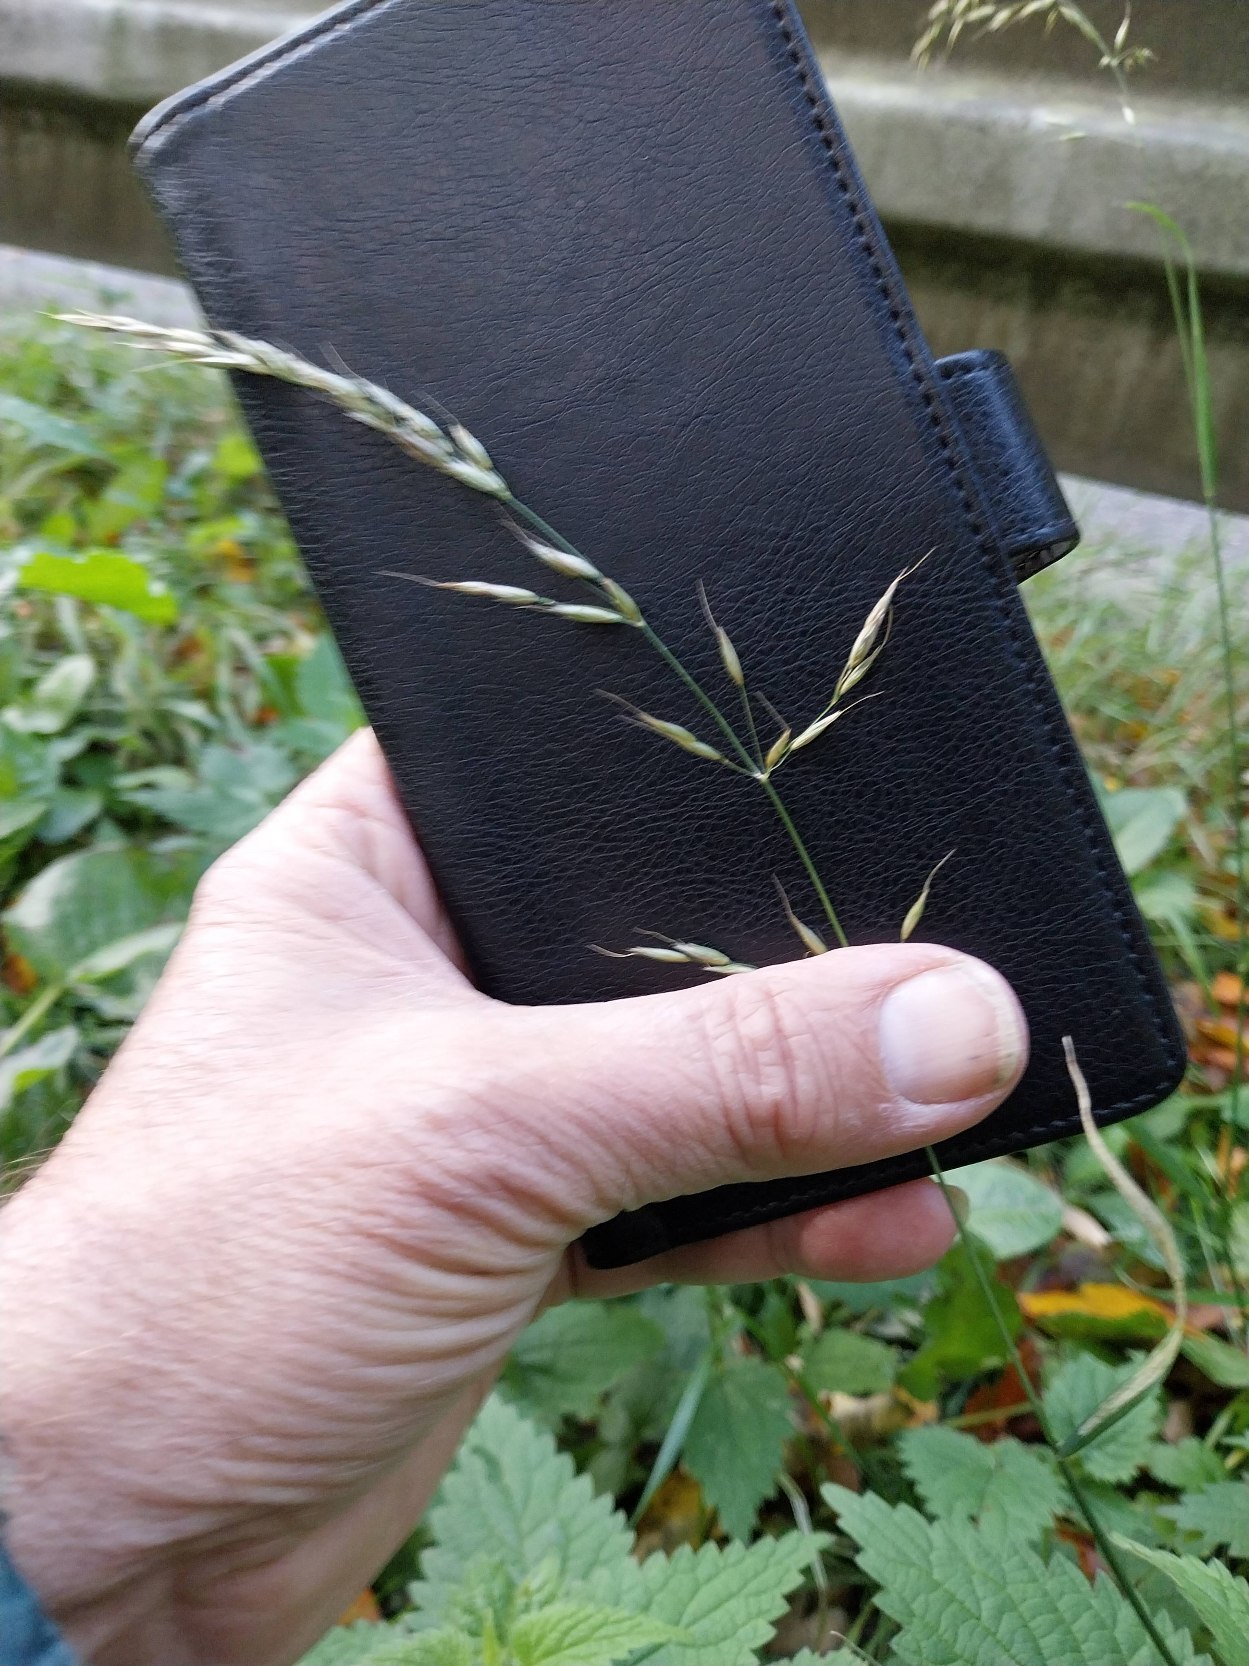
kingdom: Plantae
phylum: Tracheophyta
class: Liliopsida
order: Poales
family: Poaceae
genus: Arrhenatherum
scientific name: Arrhenatherum elatius
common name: Draphavre
